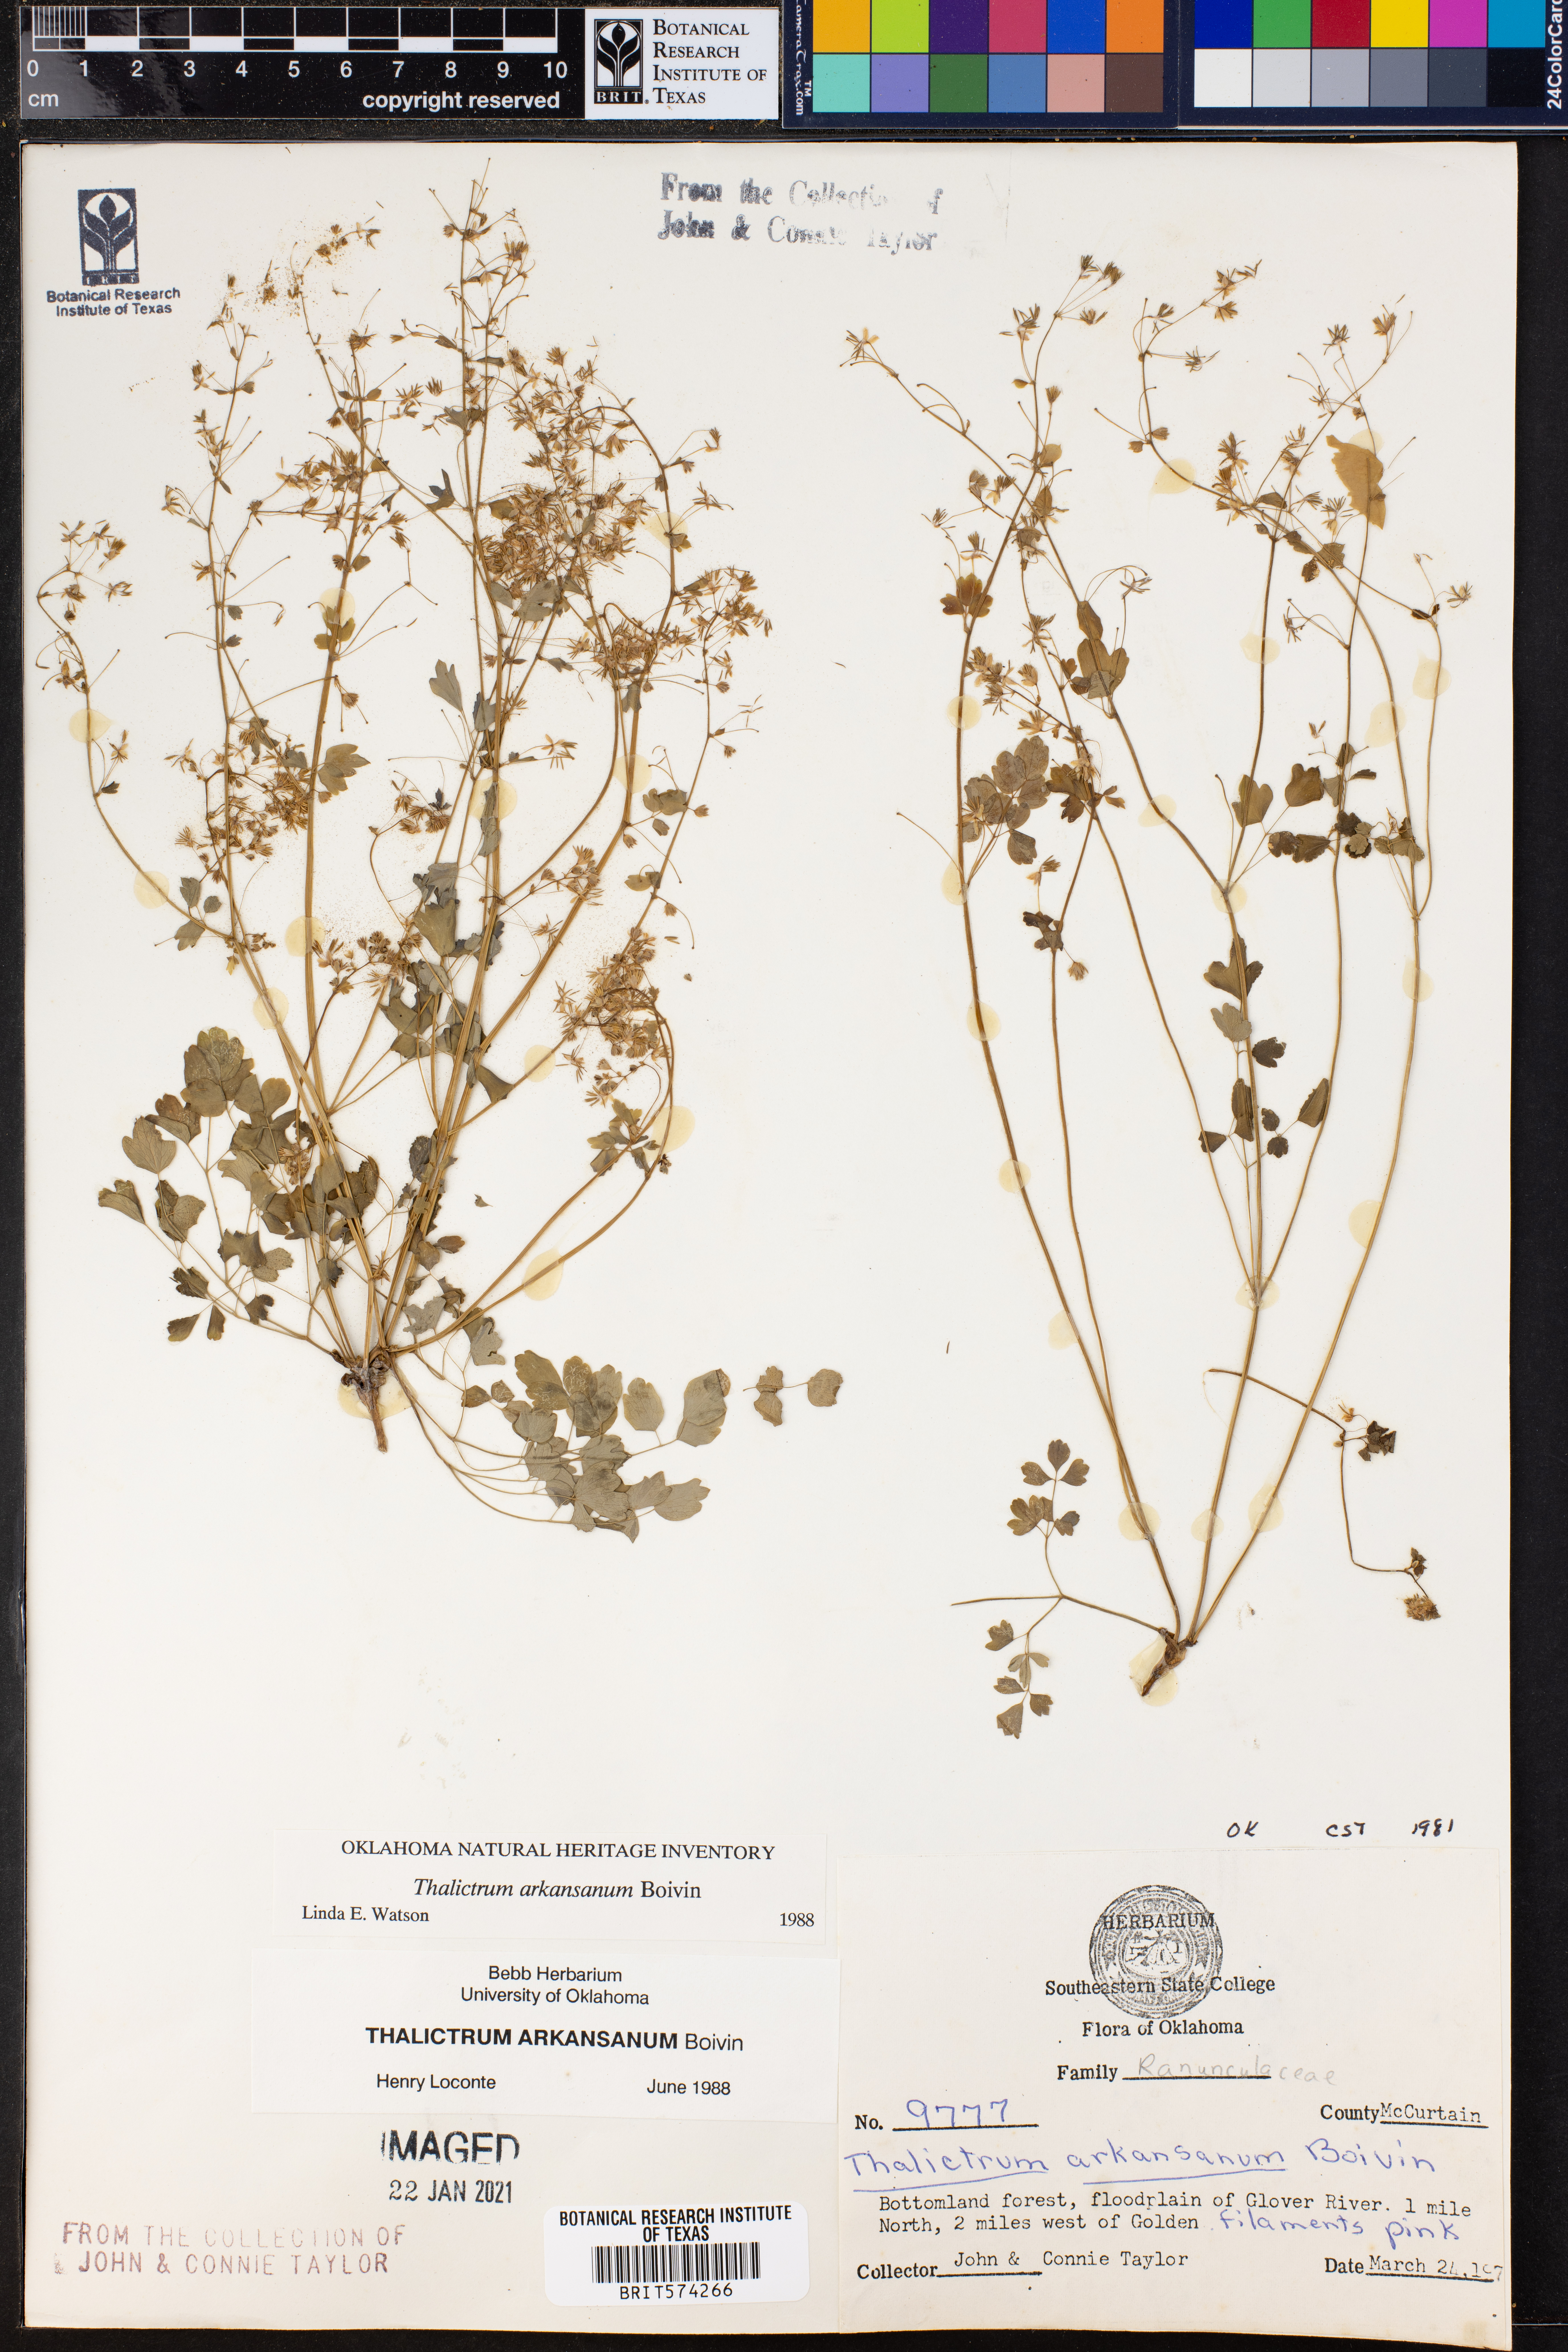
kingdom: Plantae
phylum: Tracheophyta
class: Magnoliopsida
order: Ranunculales
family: Ranunculaceae
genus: Thalictrum
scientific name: Thalictrum arkansanum
